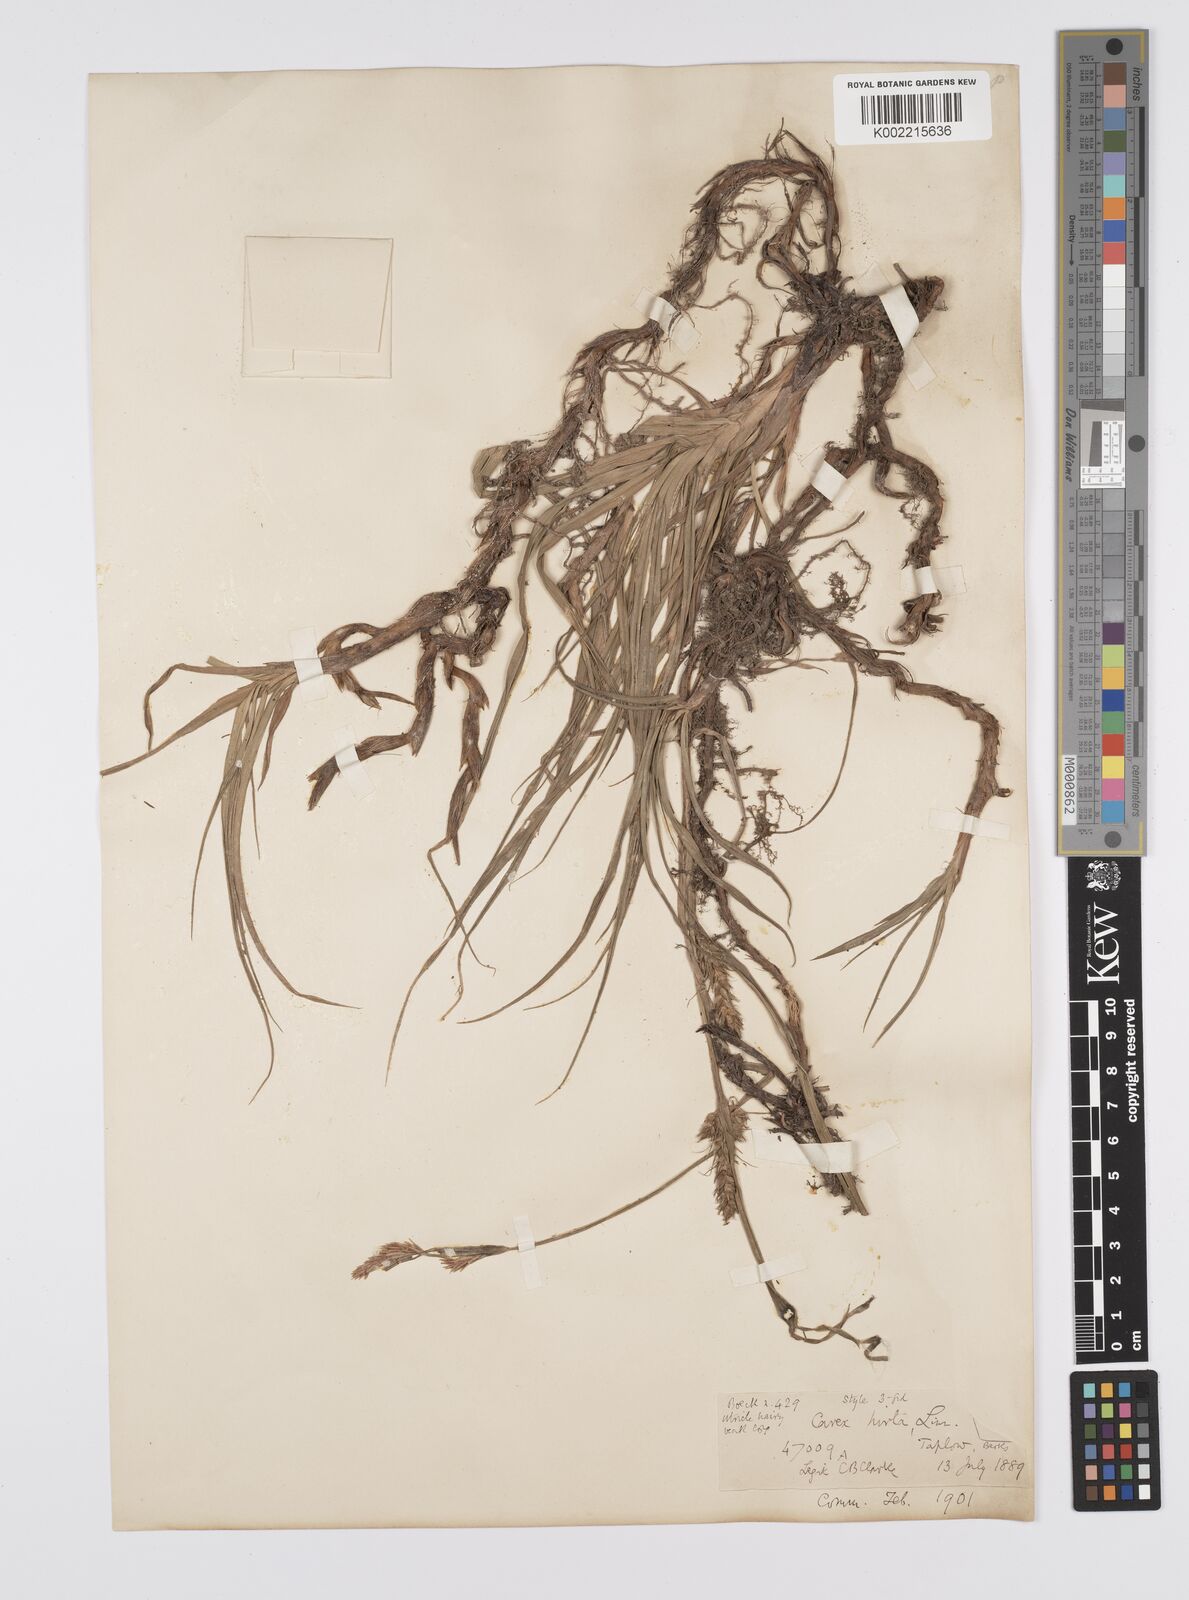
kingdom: Plantae
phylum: Tracheophyta
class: Liliopsida
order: Poales
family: Cyperaceae
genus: Carex
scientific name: Carex hirta
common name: Hairy sedge
